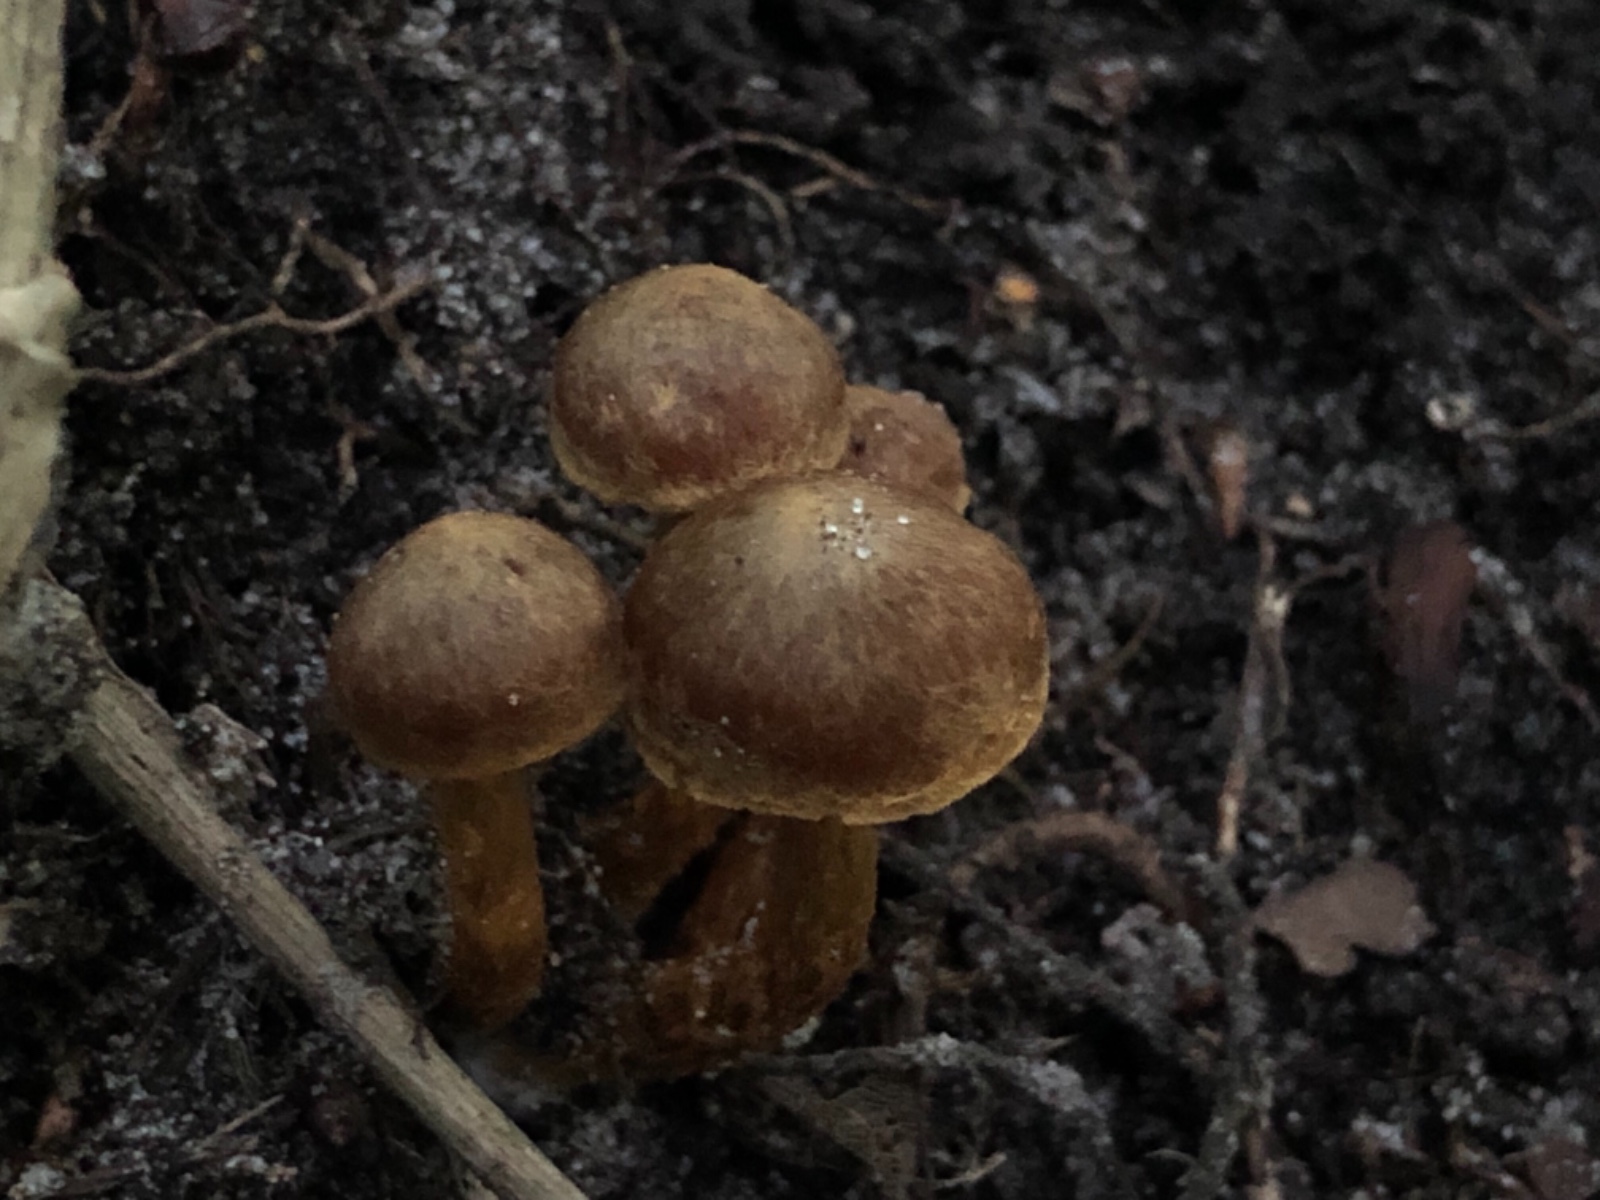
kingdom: Fungi
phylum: Basidiomycota
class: Agaricomycetes
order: Agaricales
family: Cortinariaceae
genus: Cortinarius
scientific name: Cortinarius saniosus
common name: gultrævlet slørhat
